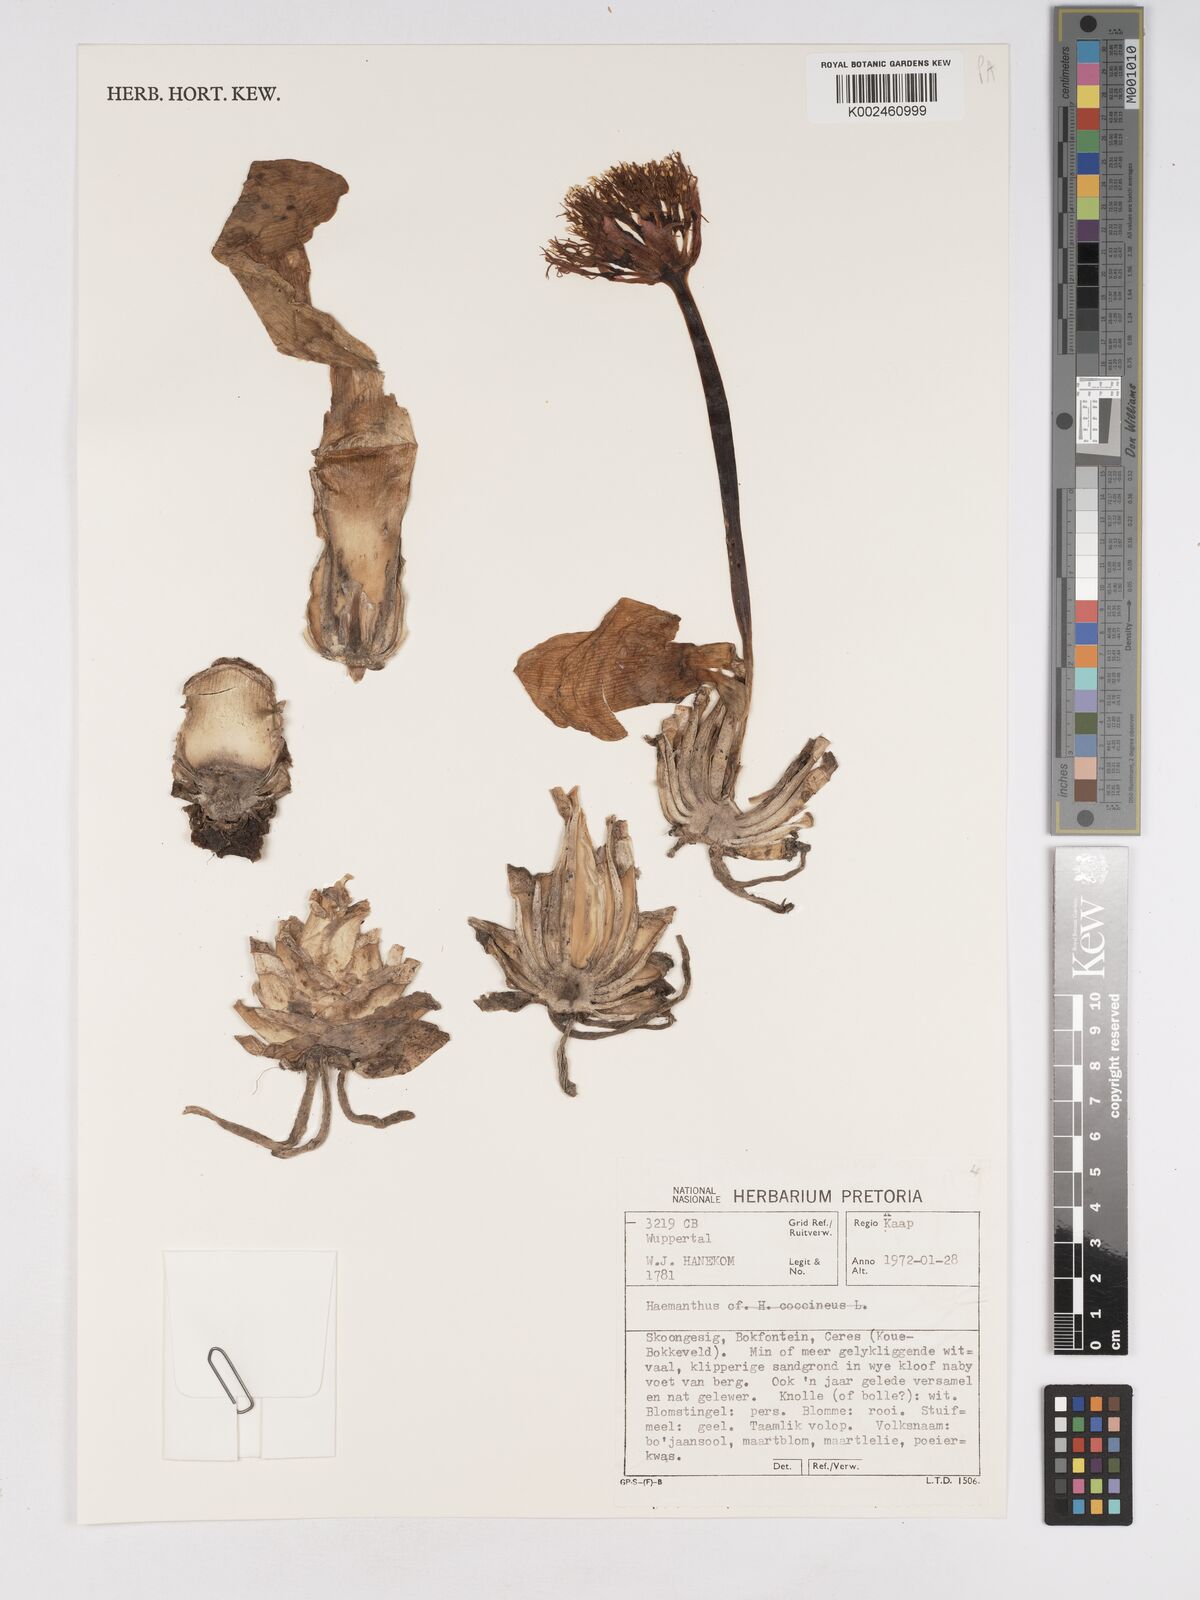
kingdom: Plantae
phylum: Tracheophyta
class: Liliopsida
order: Asparagales
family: Amaryllidaceae
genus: Haemanthus
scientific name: Haemanthus
